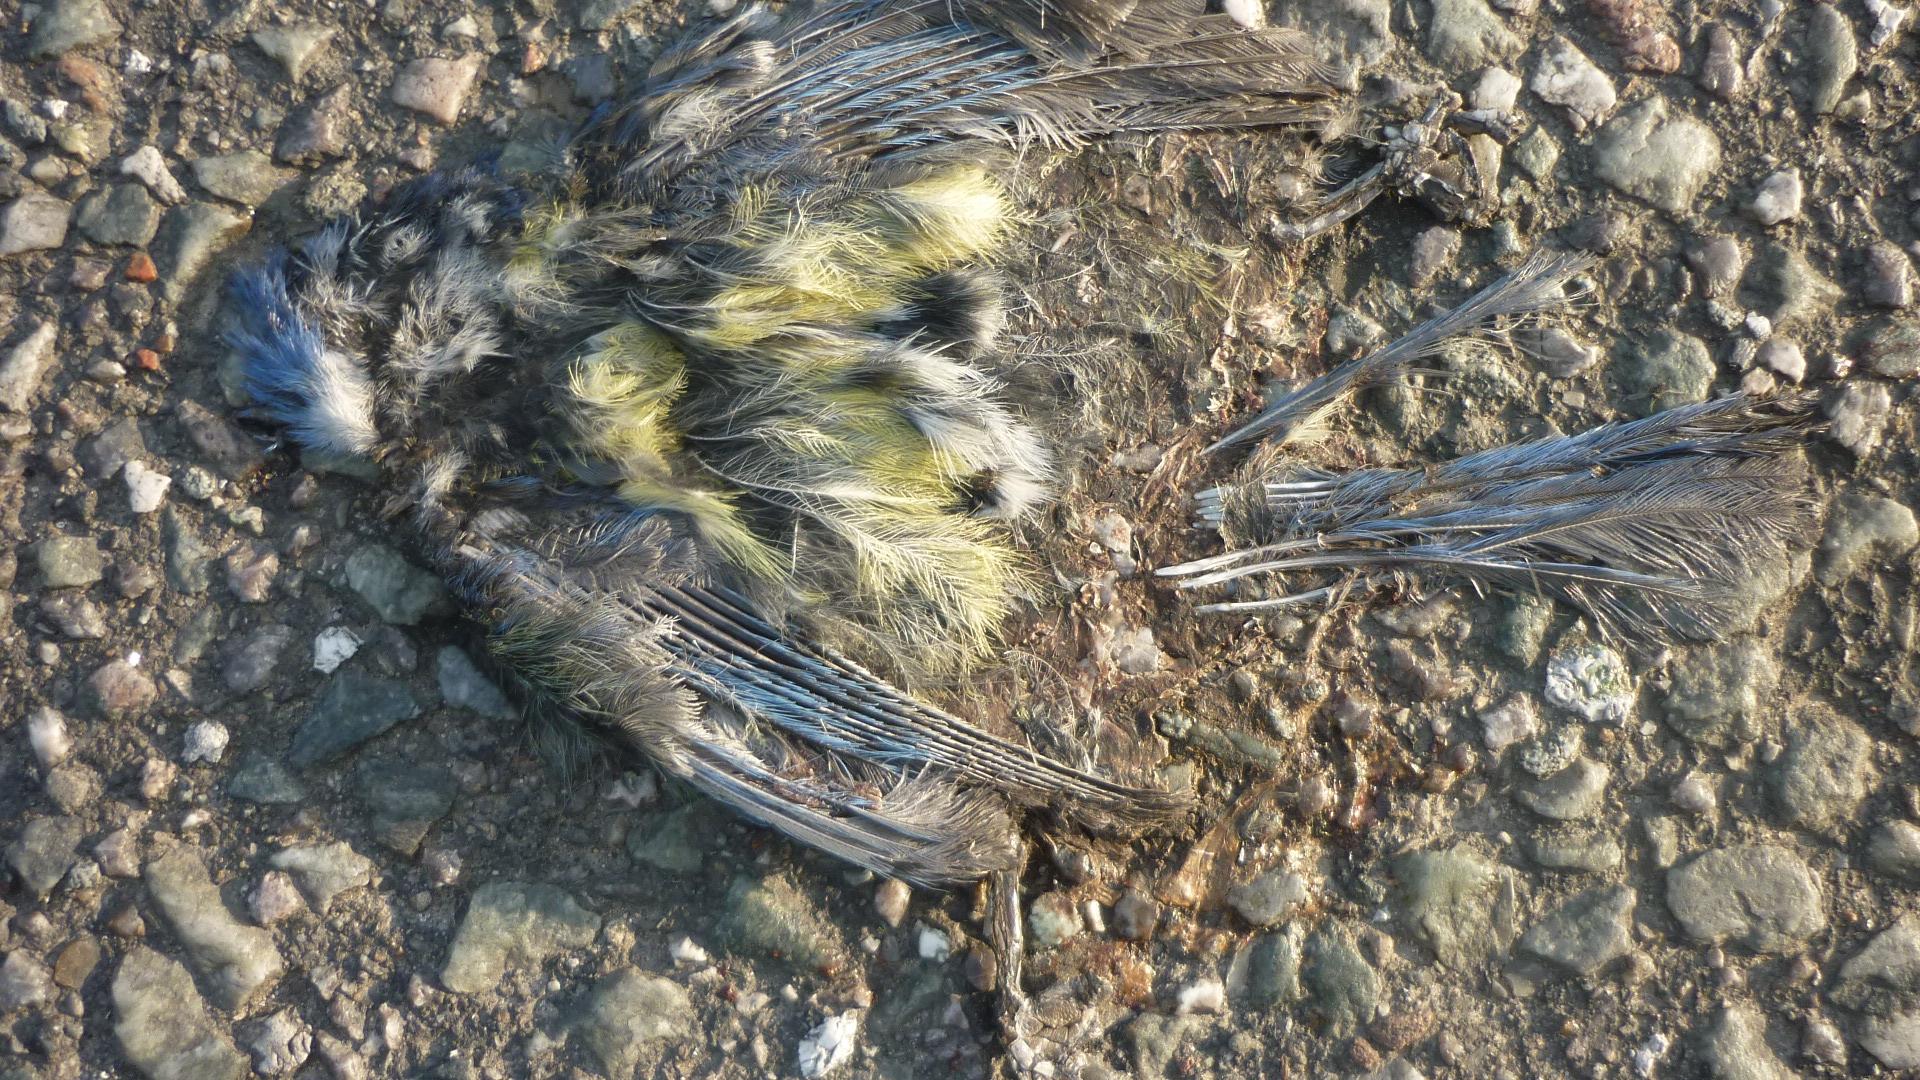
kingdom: Animalia
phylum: Chordata
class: Aves
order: Passeriformes
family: Paridae
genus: Cyanistes
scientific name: Cyanistes caeruleus
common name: Eurasian blue tit
